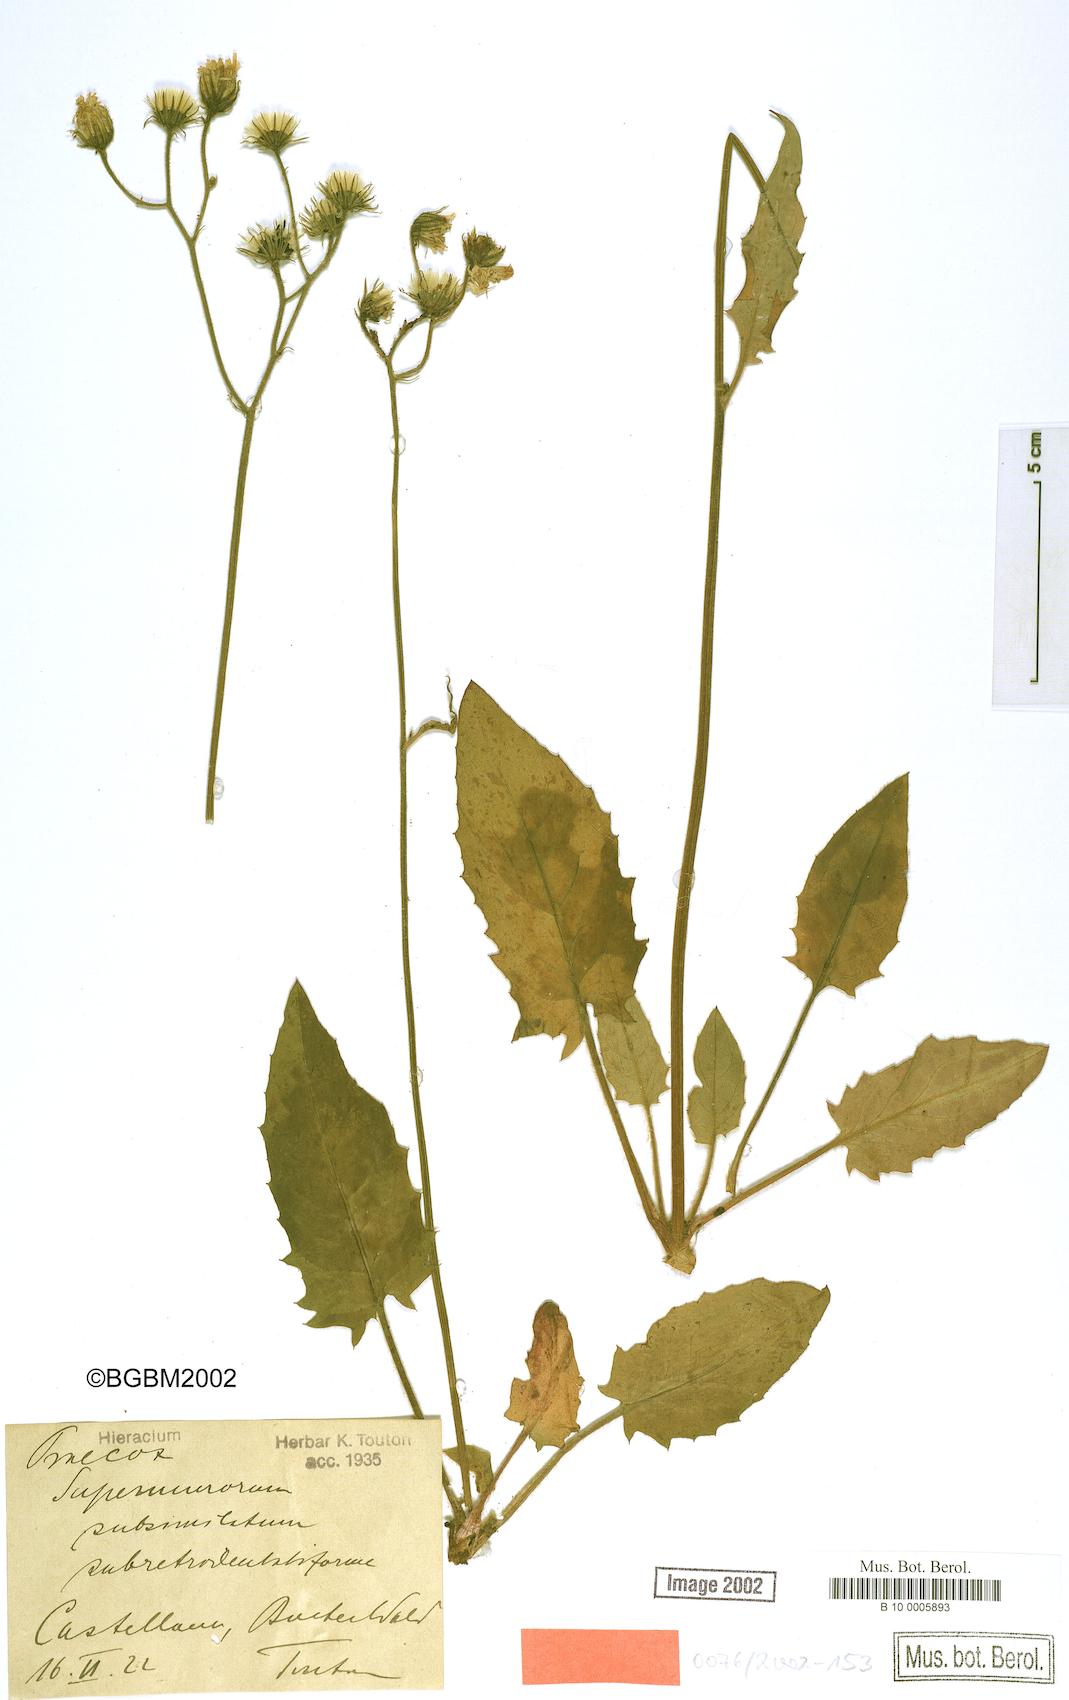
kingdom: Plantae
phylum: Tracheophyta
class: Magnoliopsida
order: Asterales
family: Asteraceae
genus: Hieracium
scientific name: Hieracium praecox
